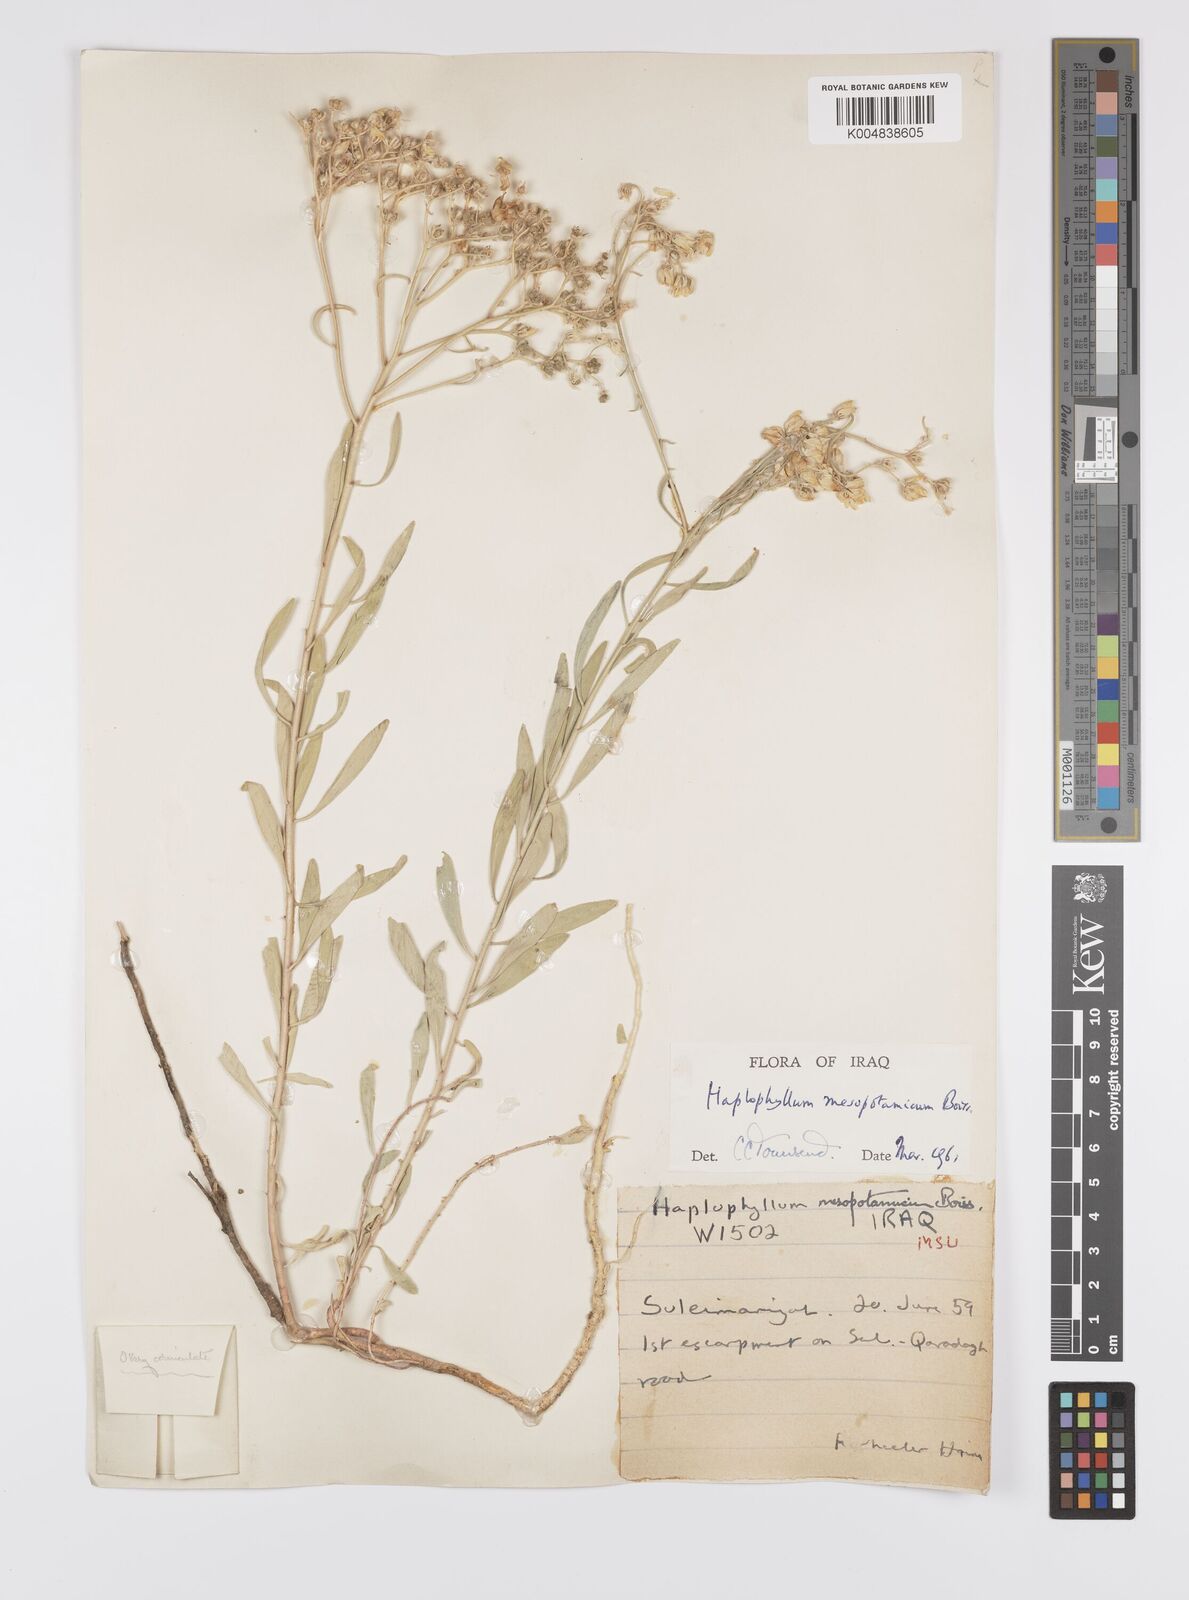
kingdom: Plantae
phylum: Tracheophyta
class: Magnoliopsida
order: Sapindales
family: Rutaceae
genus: Haplophyllum
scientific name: Haplophyllum buxbaumii
